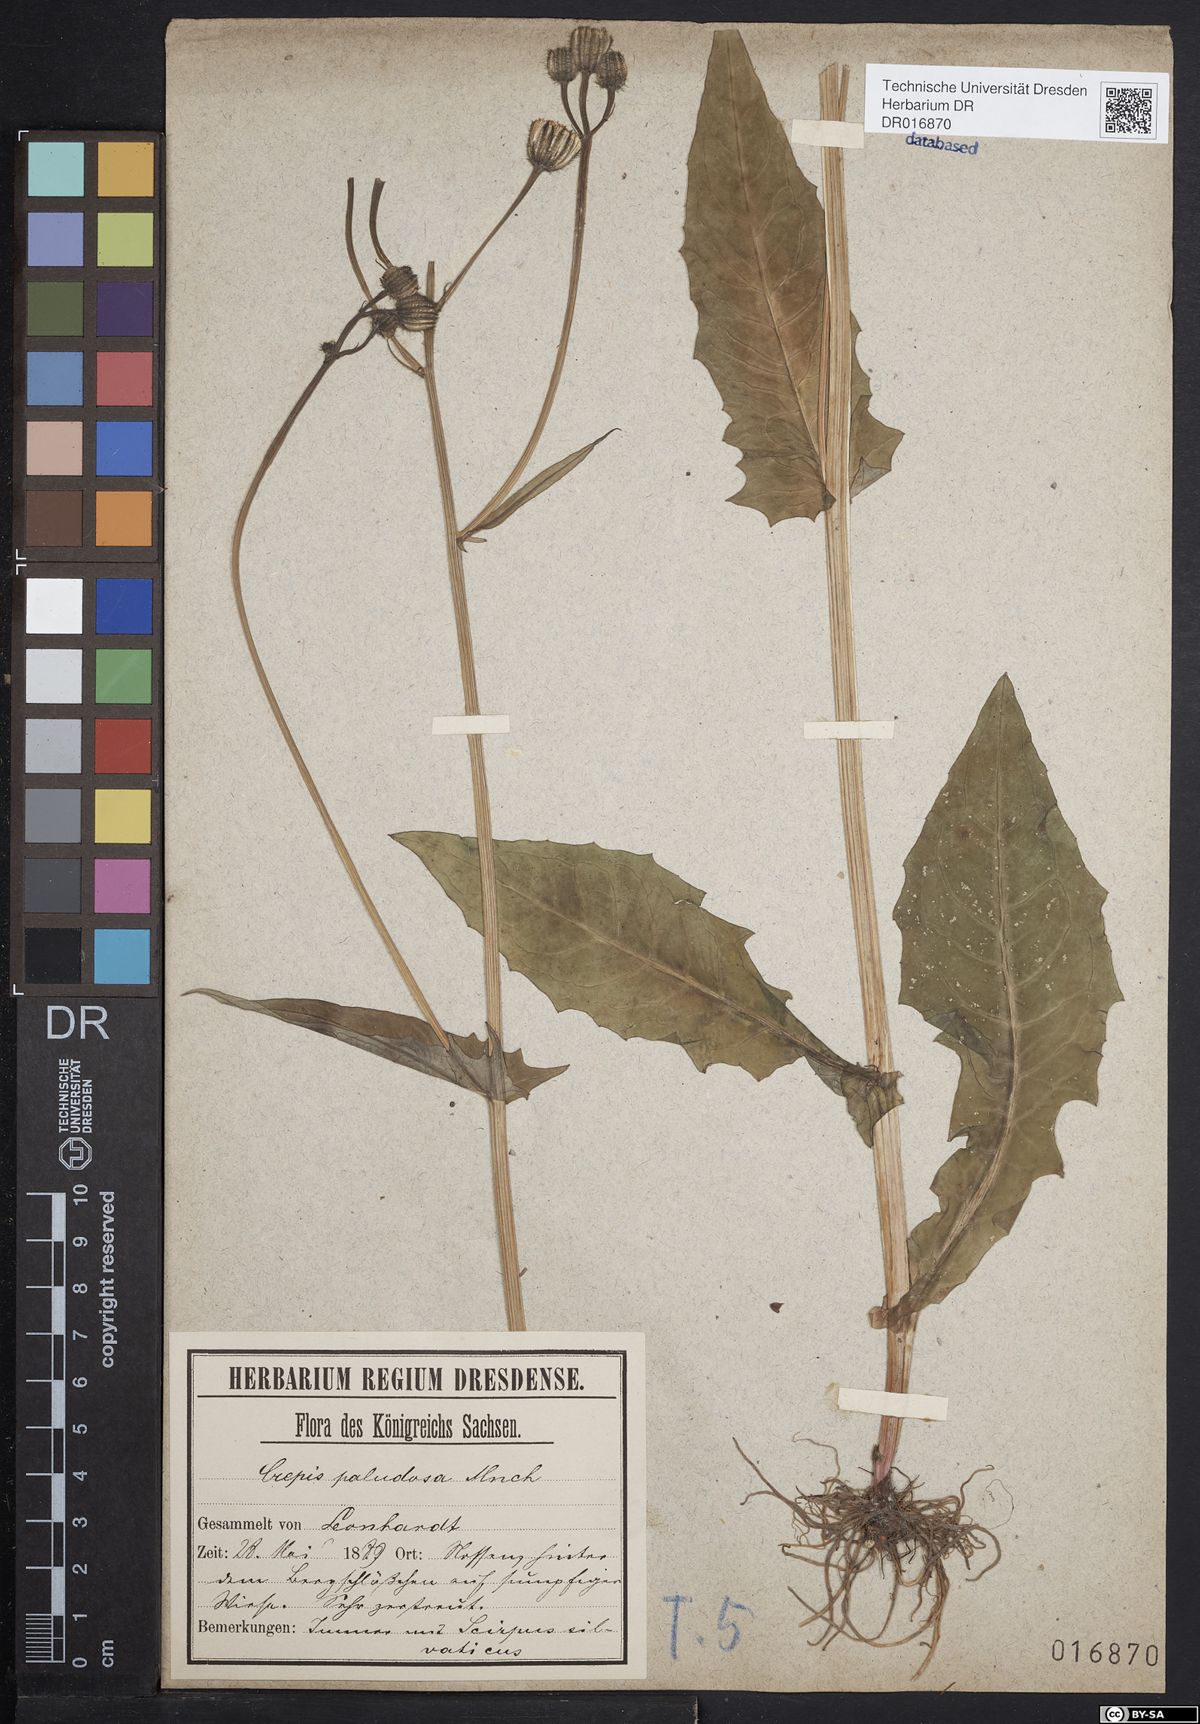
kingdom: Plantae
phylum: Tracheophyta
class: Magnoliopsida
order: Asterales
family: Asteraceae
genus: Crepis
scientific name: Crepis paludosa
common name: Marsh hawk's-beard
